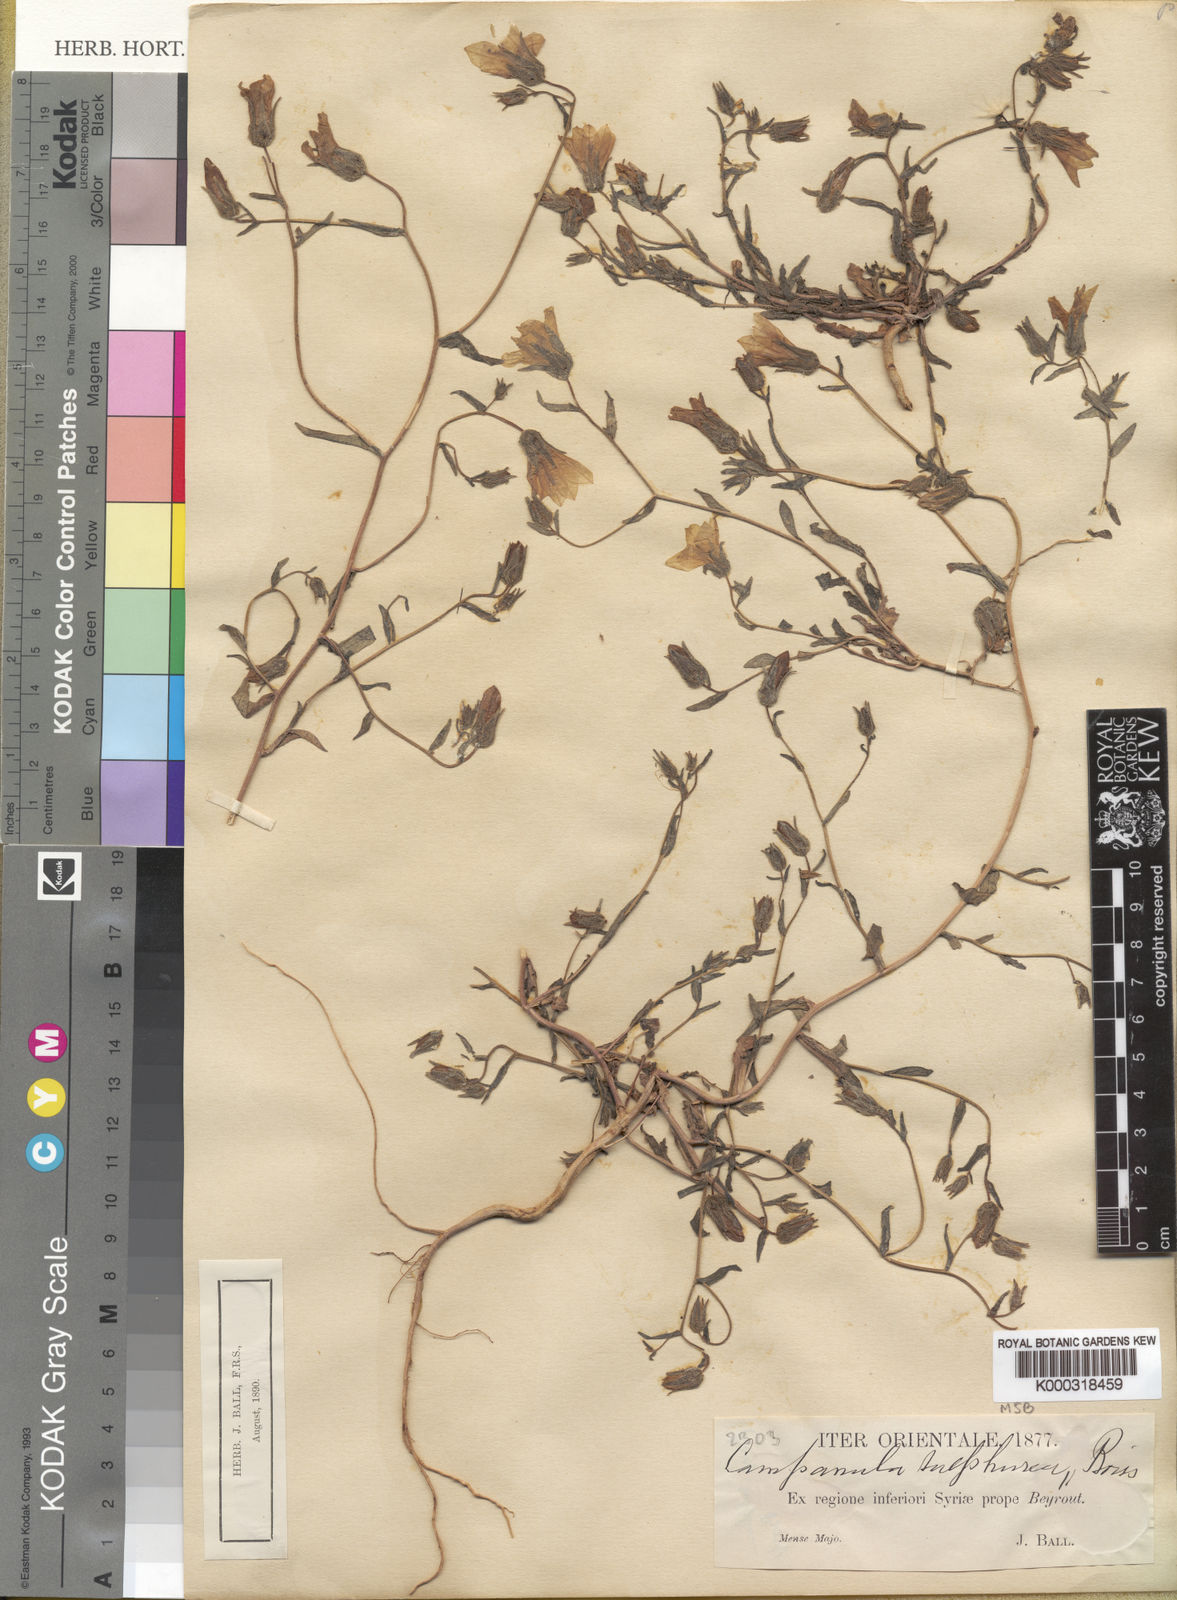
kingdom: Plantae
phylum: Tracheophyta
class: Magnoliopsida
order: Asterales
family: Campanulaceae
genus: Campanula
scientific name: Campanula sulphurea
